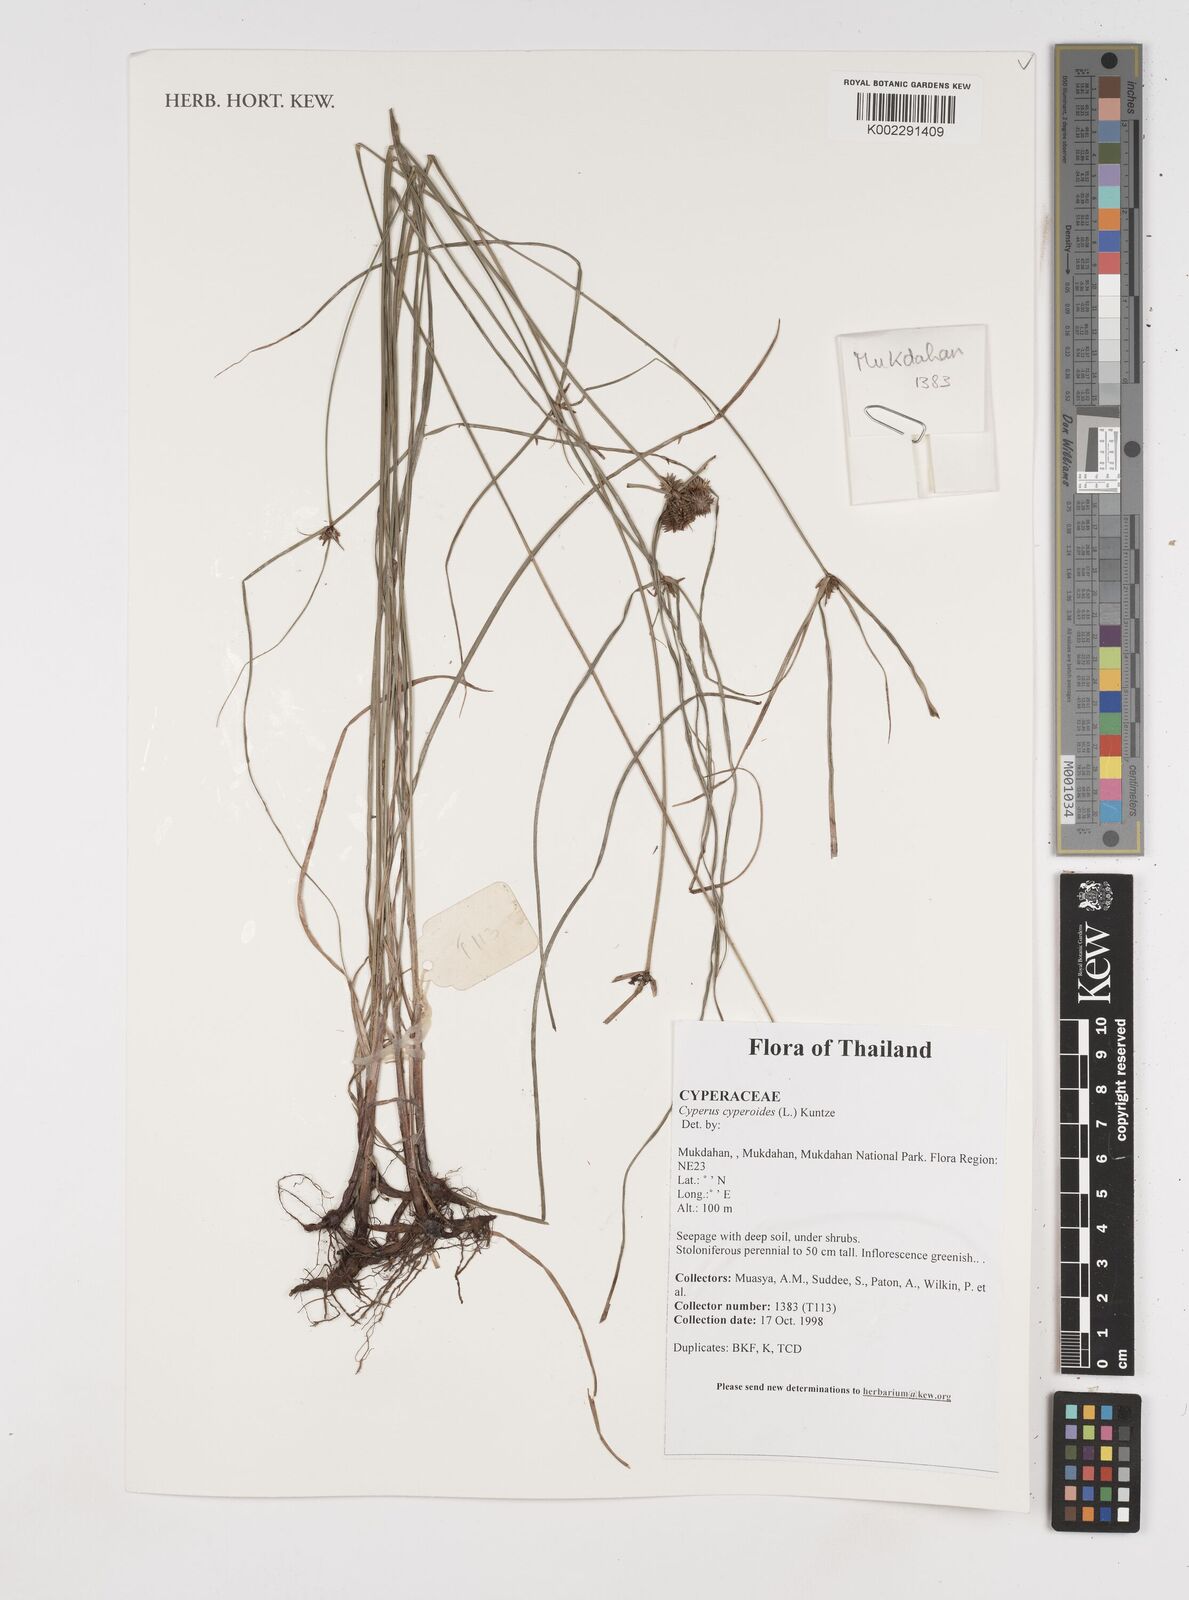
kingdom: Plantae
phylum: Tracheophyta
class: Liliopsida
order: Poales
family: Cyperaceae
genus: Cyperus
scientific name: Cyperus cyperoides
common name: Pacific island flat sedge
